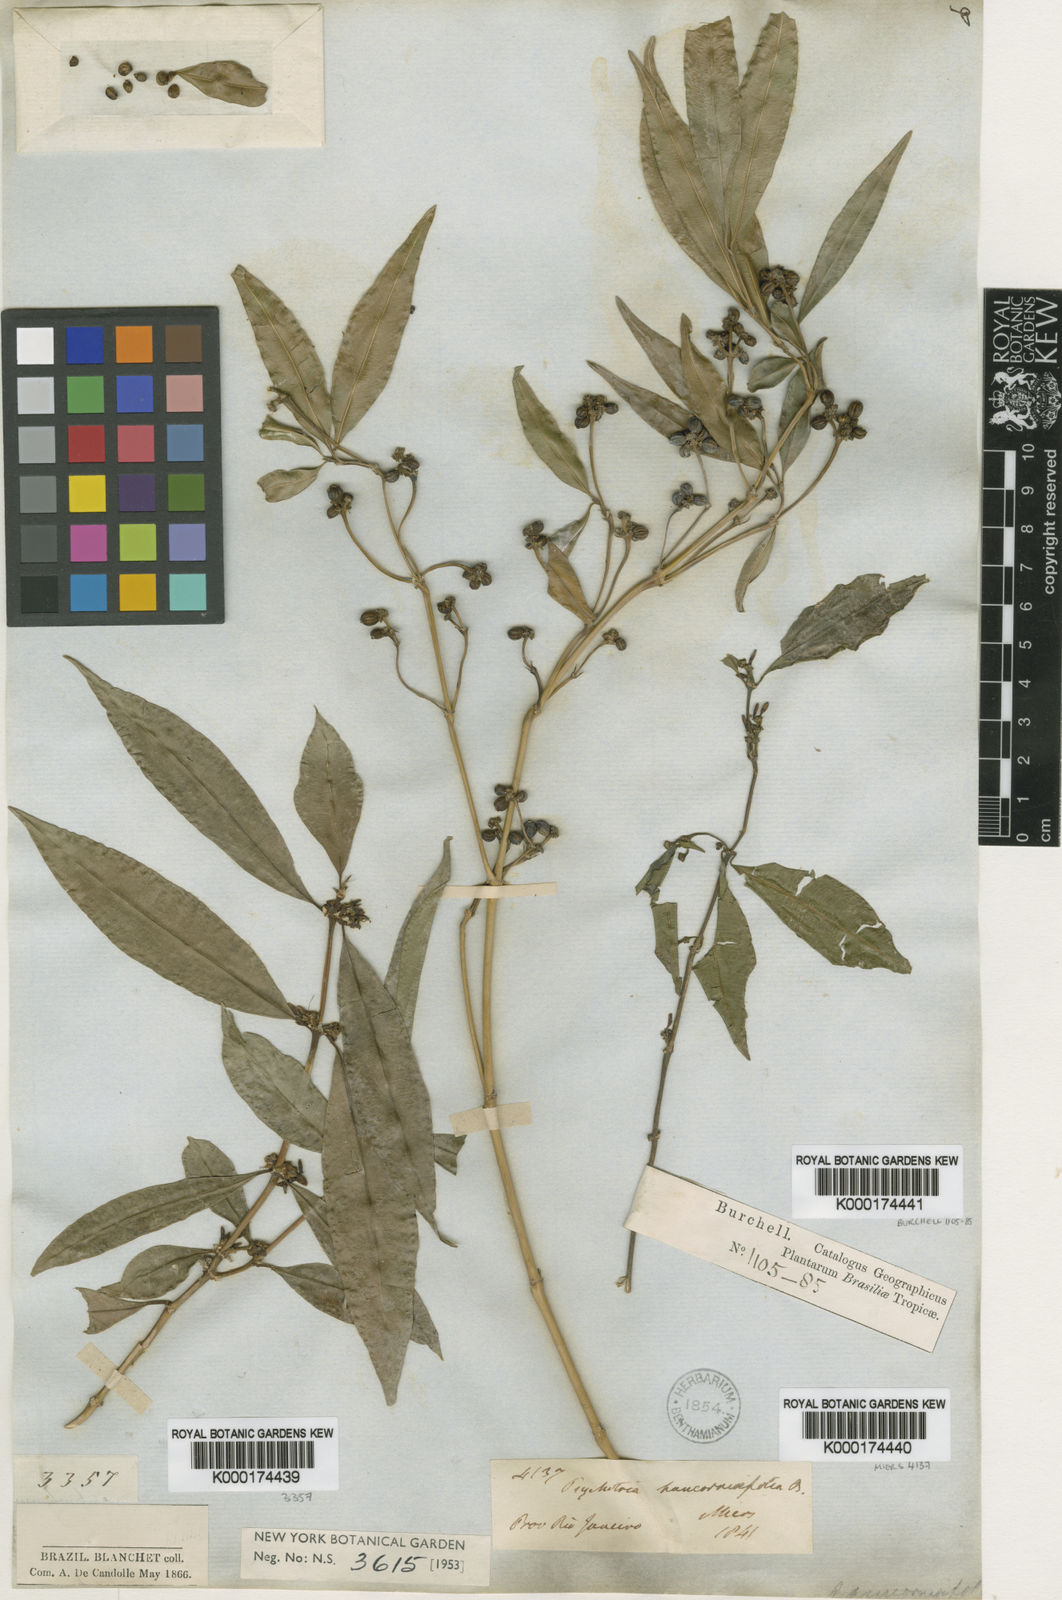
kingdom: Plantae
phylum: Tracheophyta
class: Magnoliopsida
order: Gentianales
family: Rubiaceae
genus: Palicourea
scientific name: Palicourea sessilis
